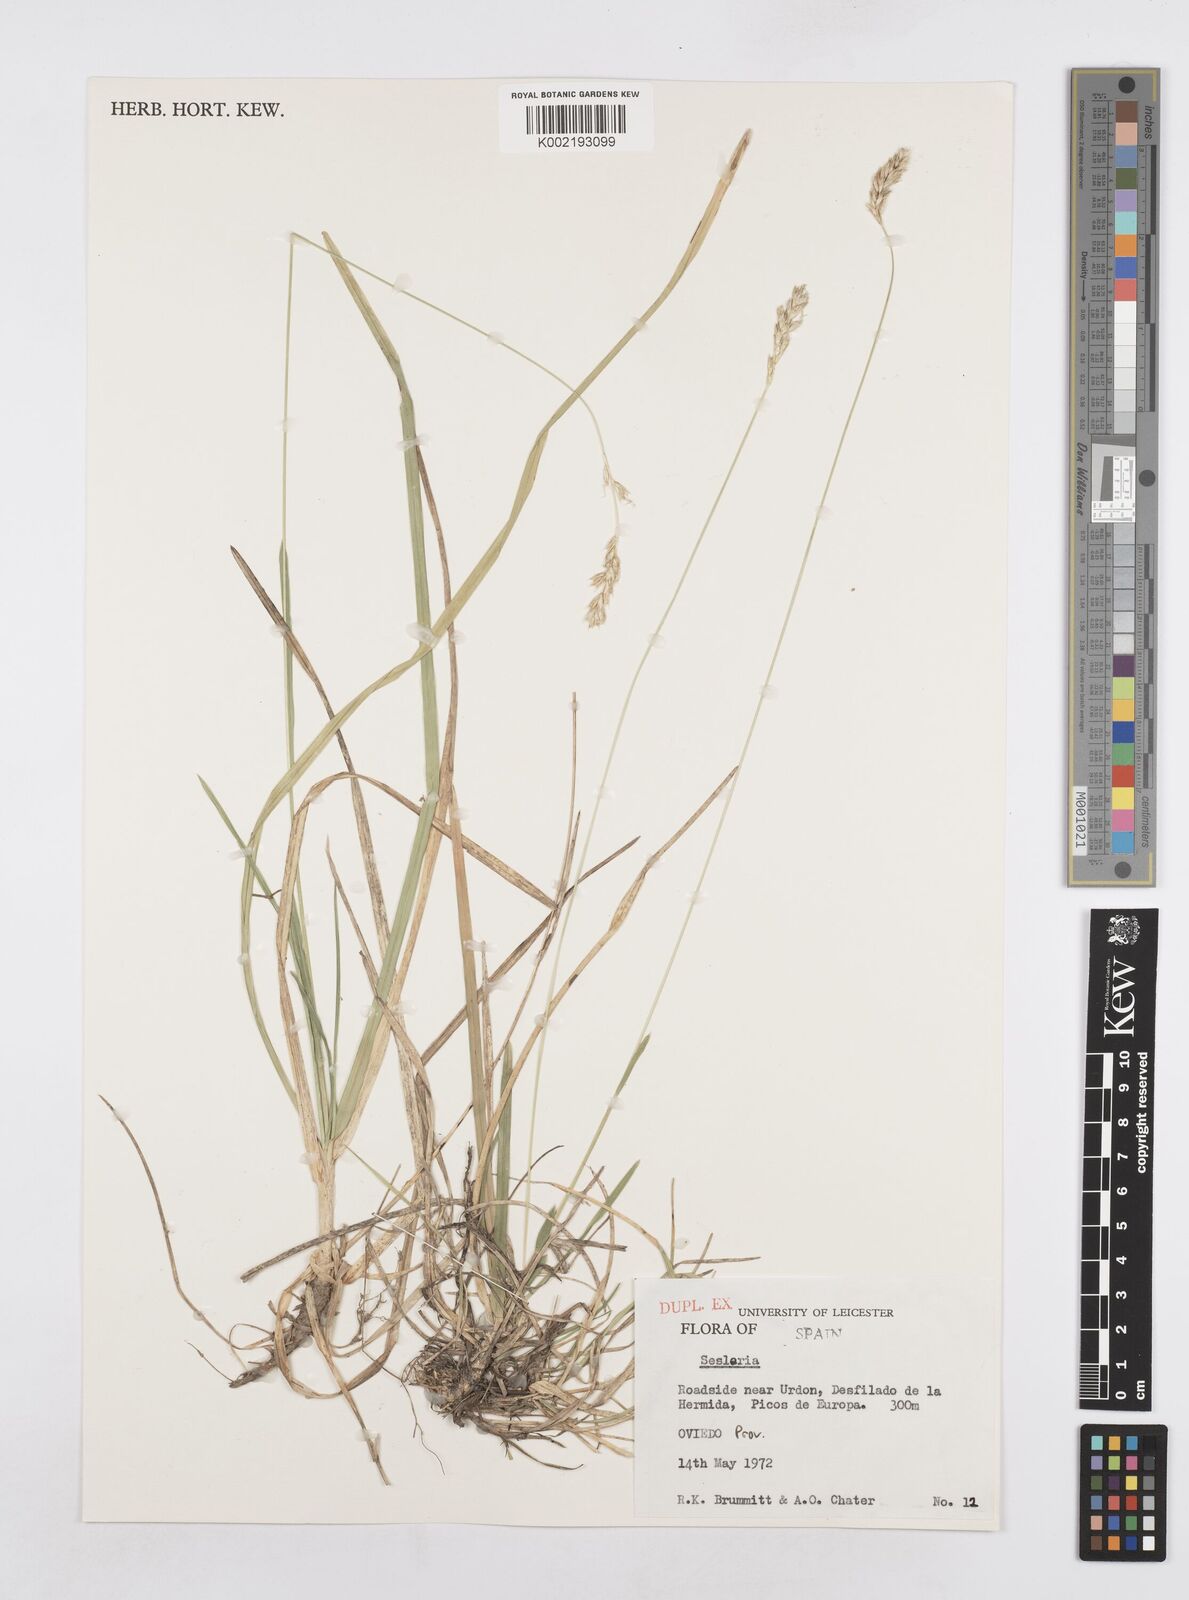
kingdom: Plantae
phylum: Tracheophyta
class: Liliopsida
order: Poales
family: Poaceae
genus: Sesleria
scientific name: Sesleria
